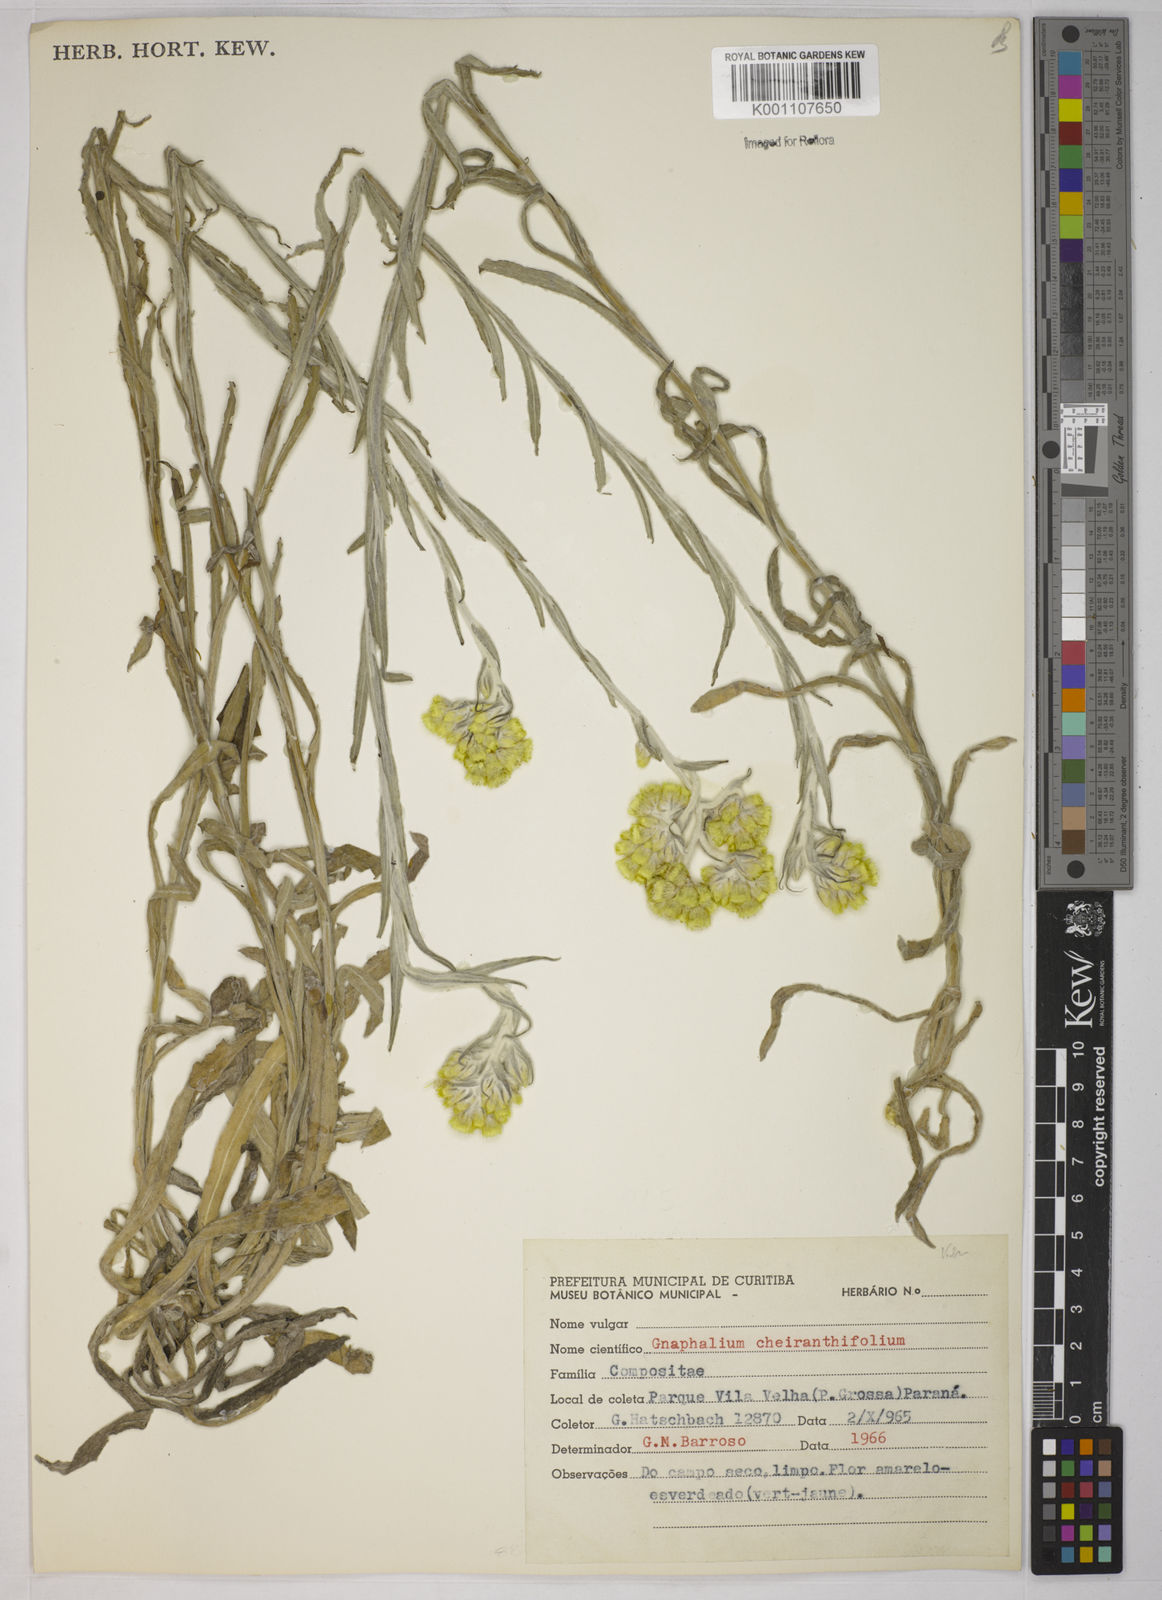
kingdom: Plantae
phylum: Tracheophyta
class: Magnoliopsida
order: Asterales
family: Asteraceae
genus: Pseudognaphalium
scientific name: Pseudognaphalium cheiranthifolium
